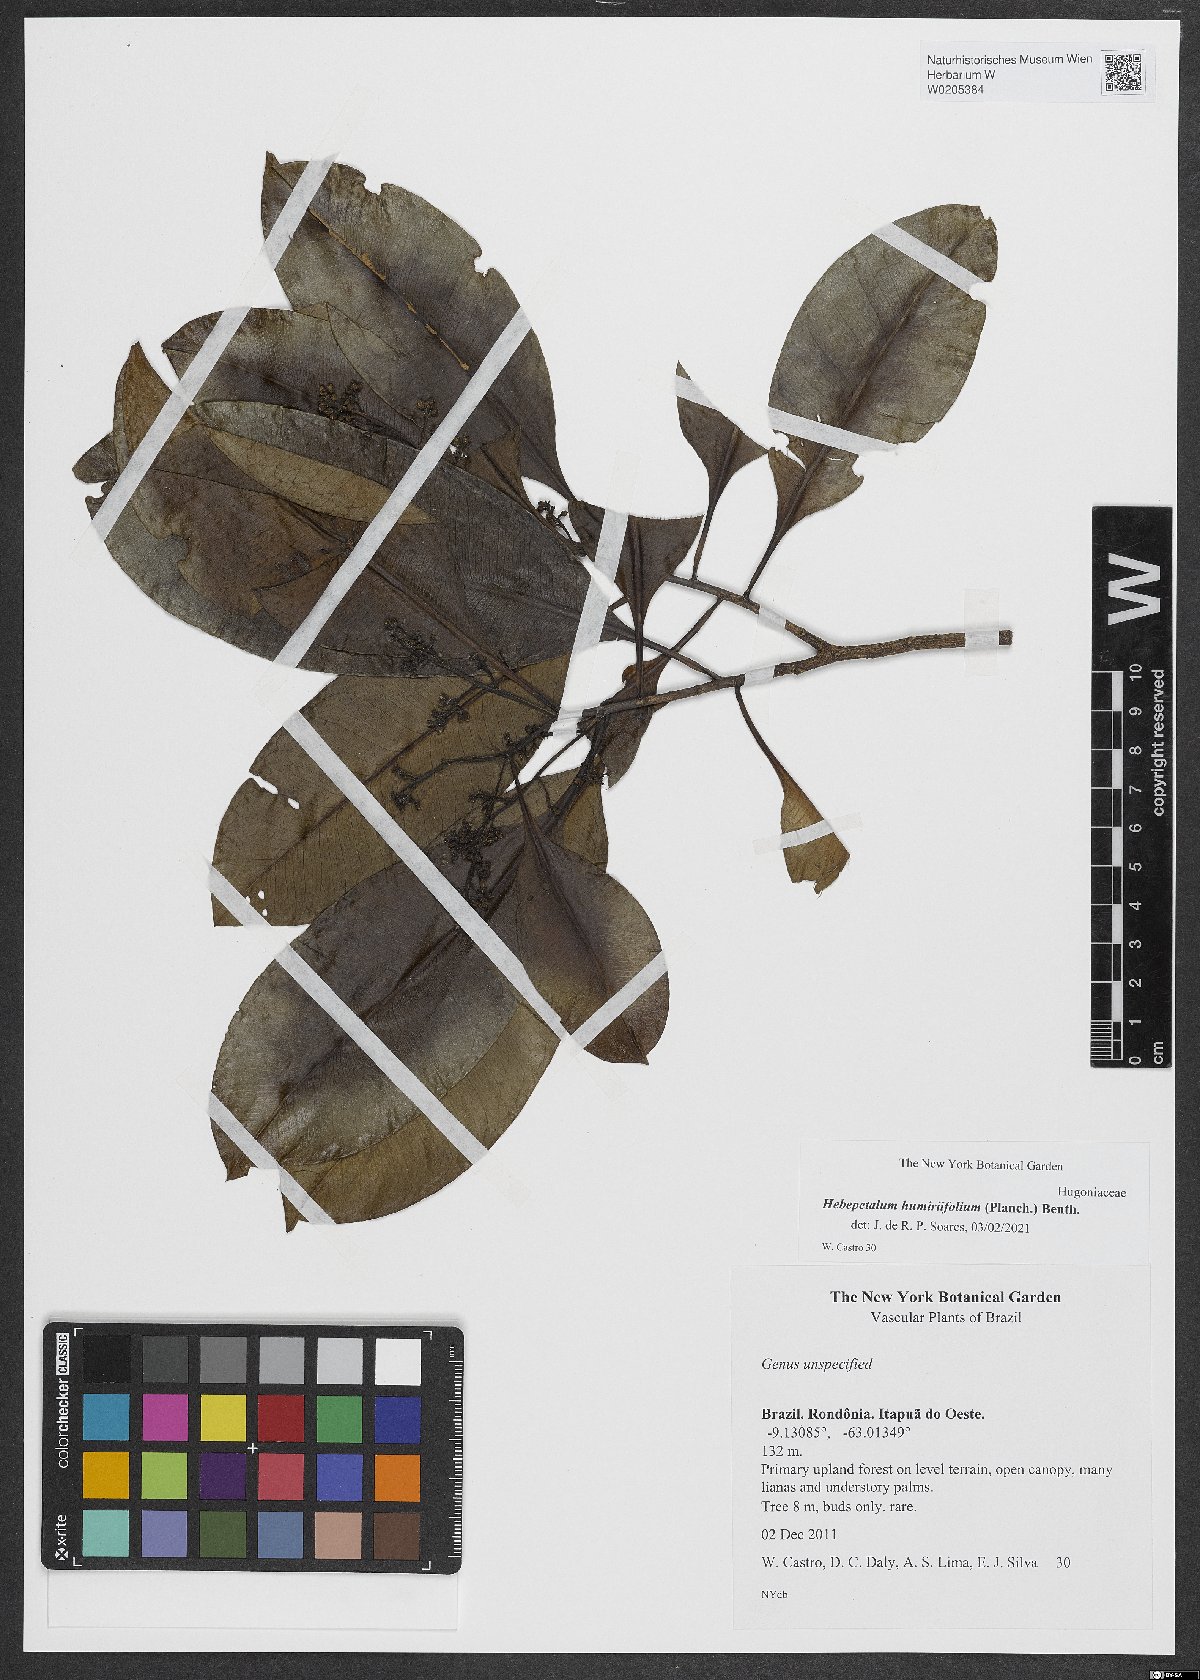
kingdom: Plantae
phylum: Tracheophyta
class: Magnoliopsida
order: Malpighiales
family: Linaceae
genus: Hebepetalum
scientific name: Hebepetalum humiriifolium
